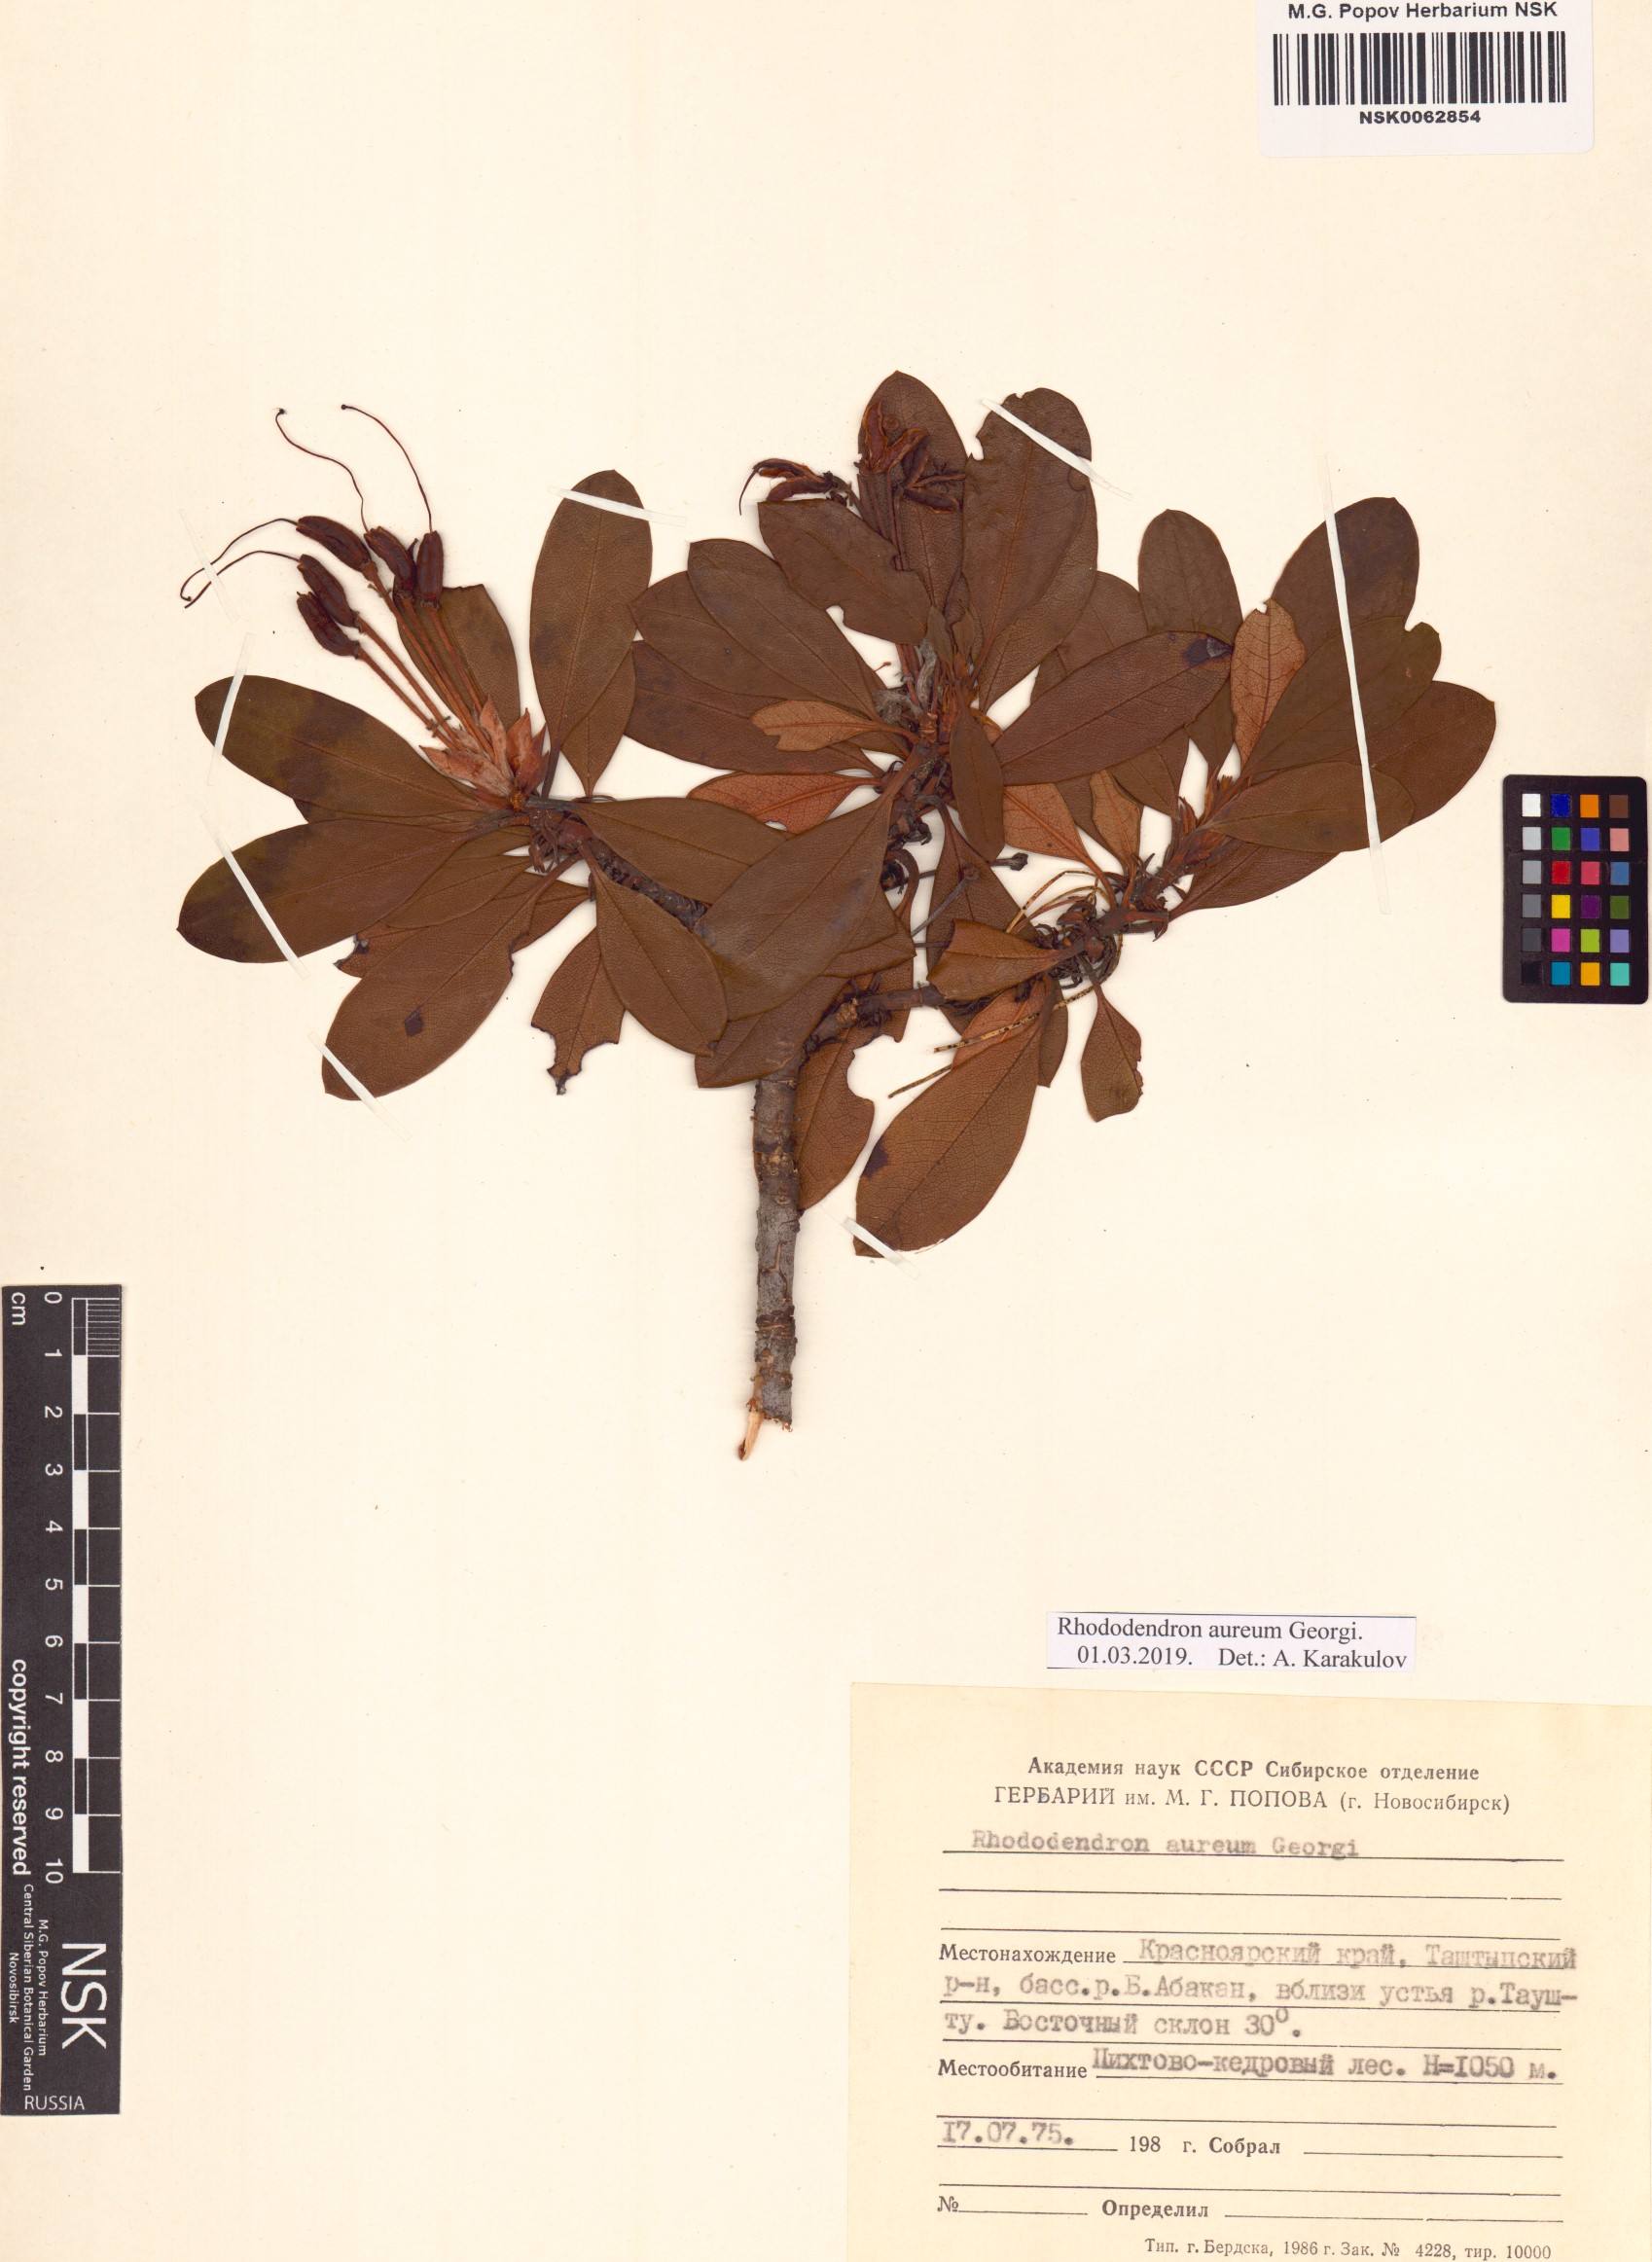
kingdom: Plantae
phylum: Tracheophyta
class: Magnoliopsida
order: Ericales
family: Ericaceae
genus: Rhododendron
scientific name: Rhododendron aureum
